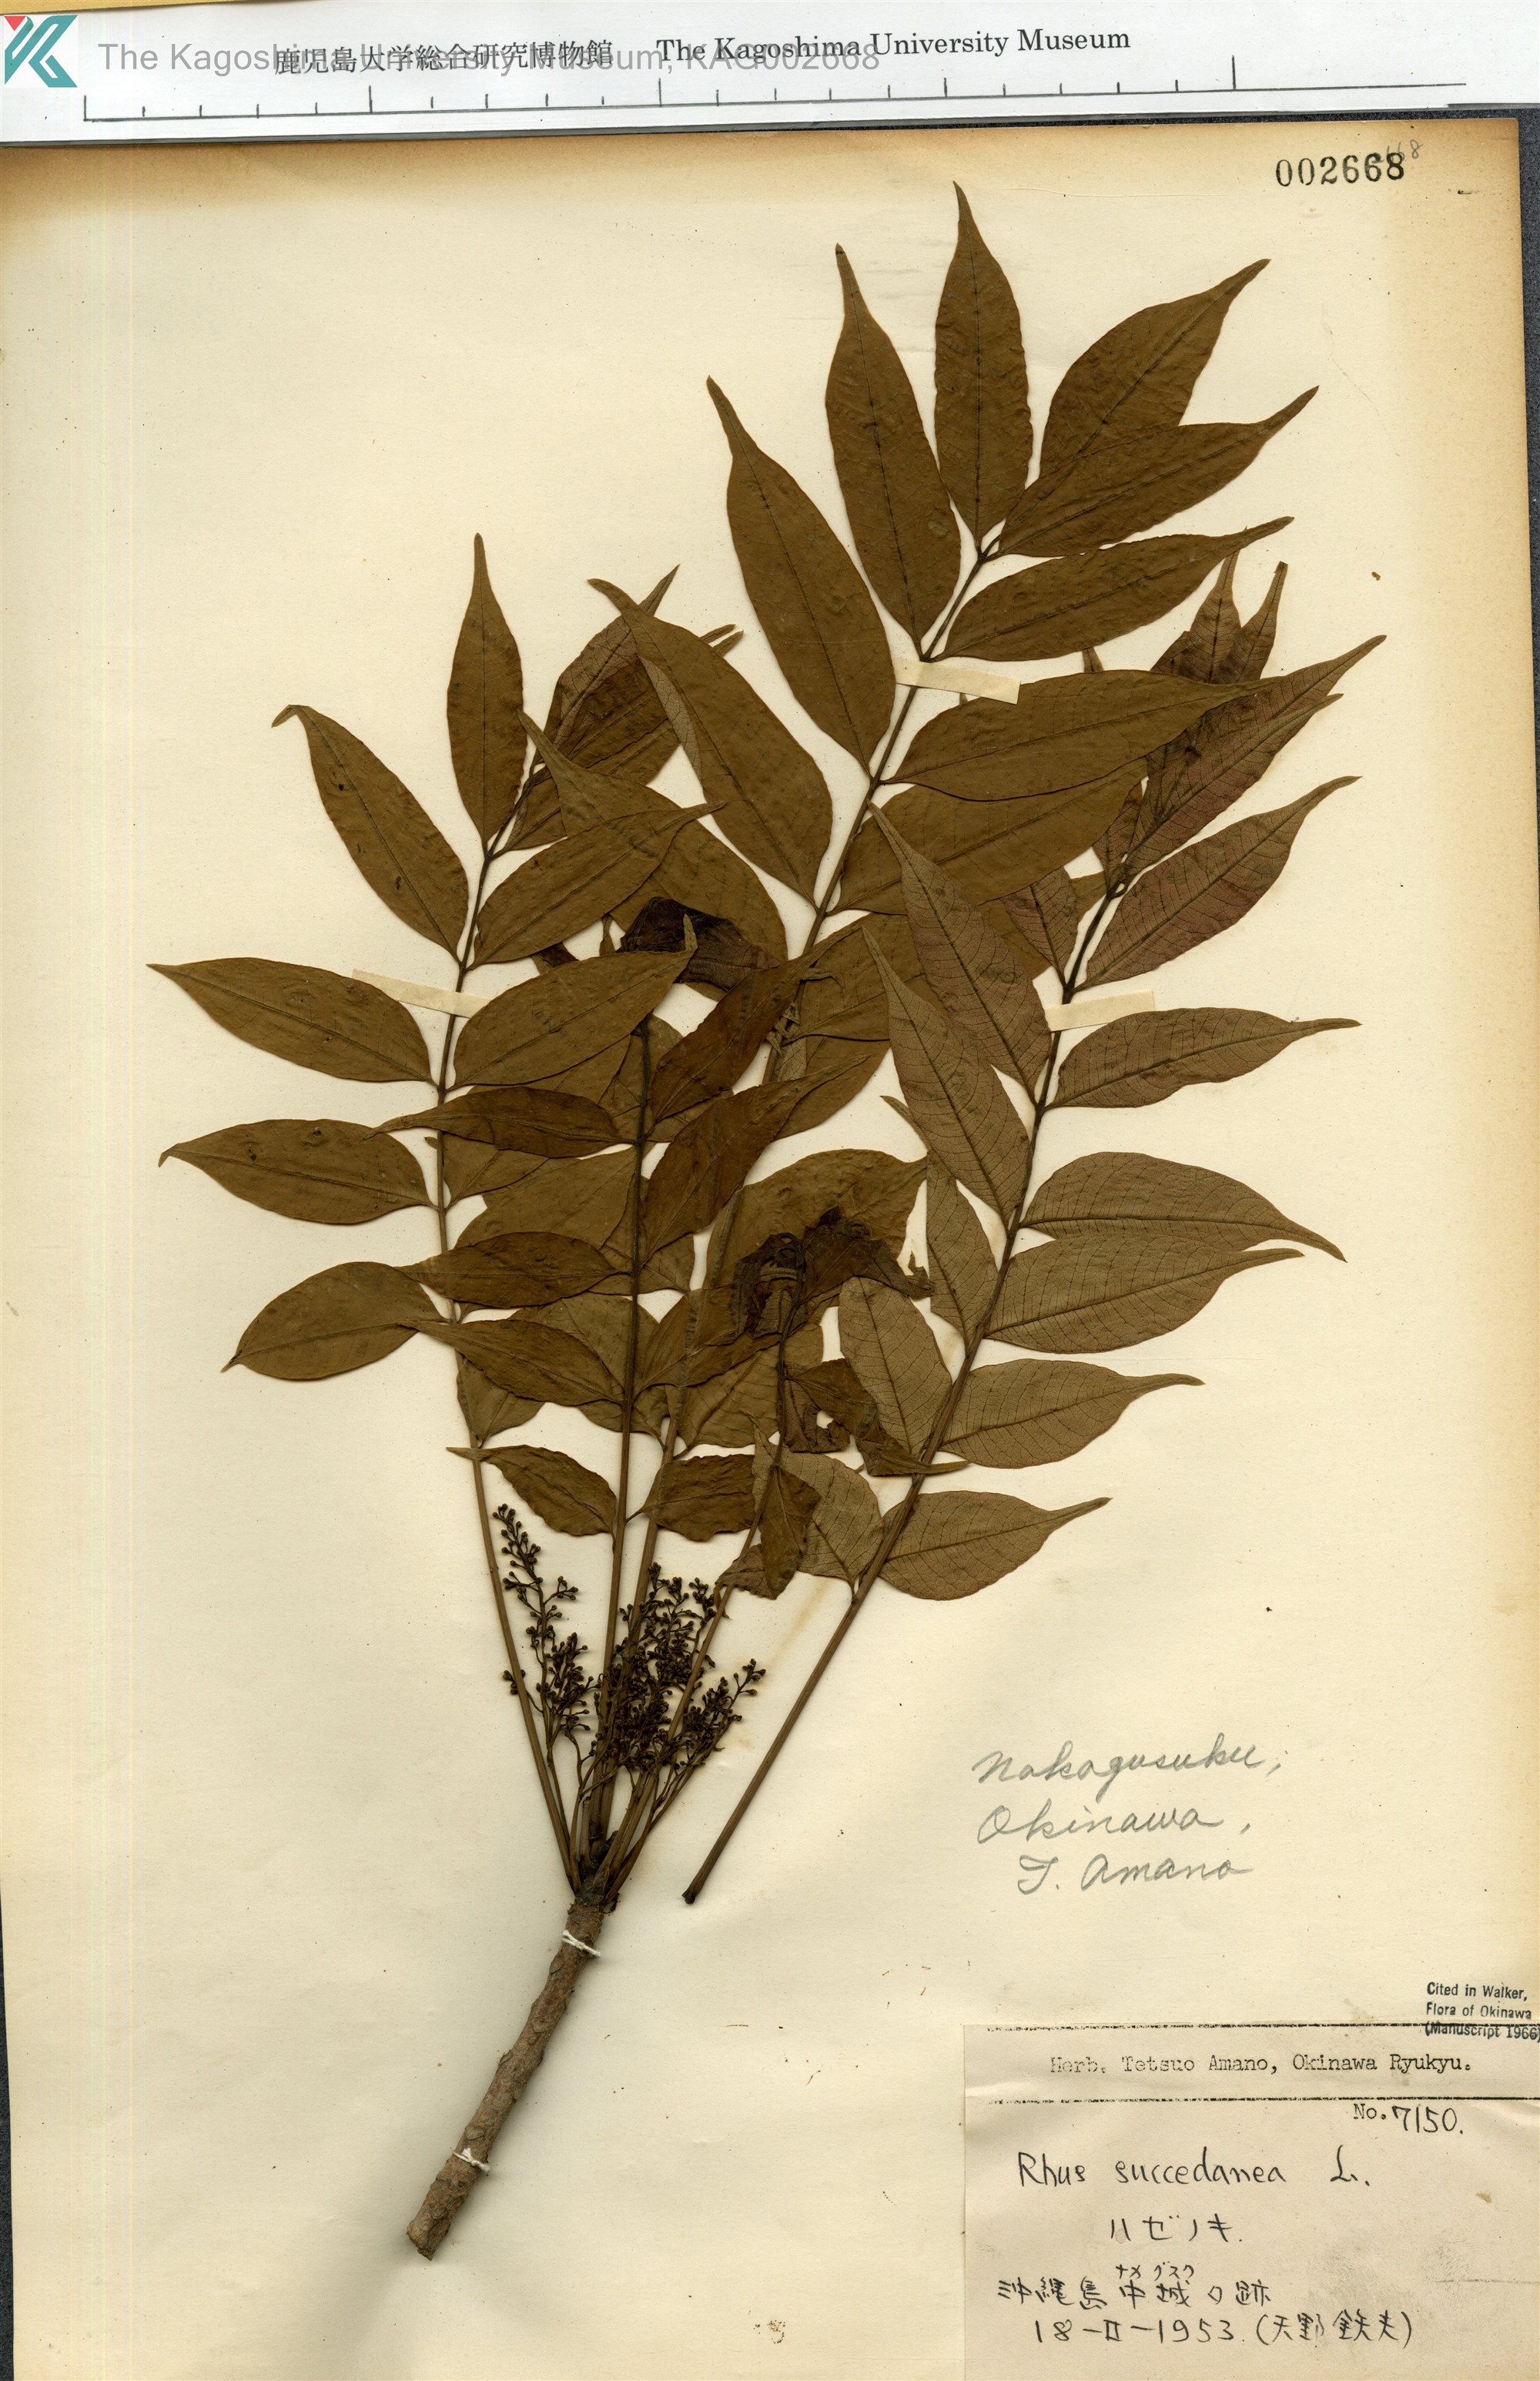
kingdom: Plantae
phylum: Tracheophyta
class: Magnoliopsida
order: Sapindales
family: Anacardiaceae
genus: Toxicodendron
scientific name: Toxicodendron succedaneum
